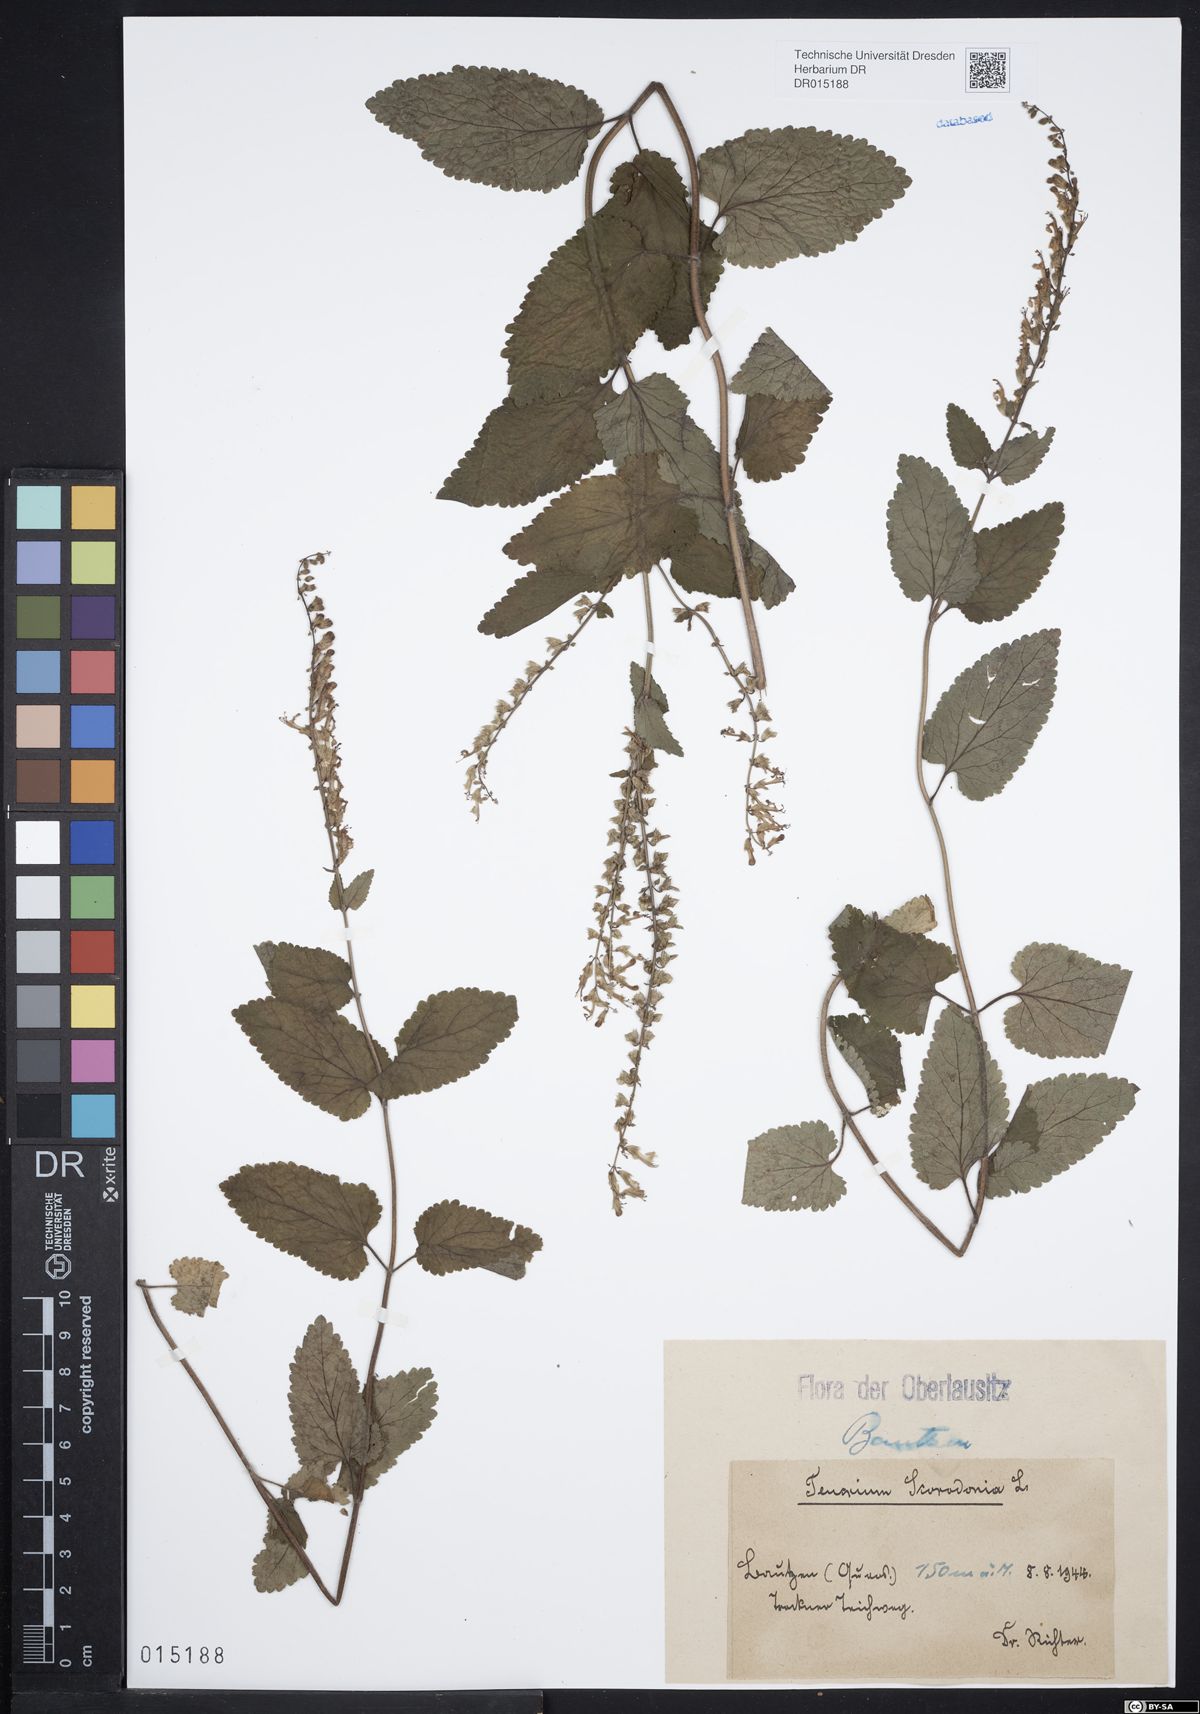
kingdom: Plantae
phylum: Tracheophyta
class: Magnoliopsida
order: Lamiales
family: Lamiaceae
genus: Teucrium
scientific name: Teucrium scorodonia
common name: Woodland germander
